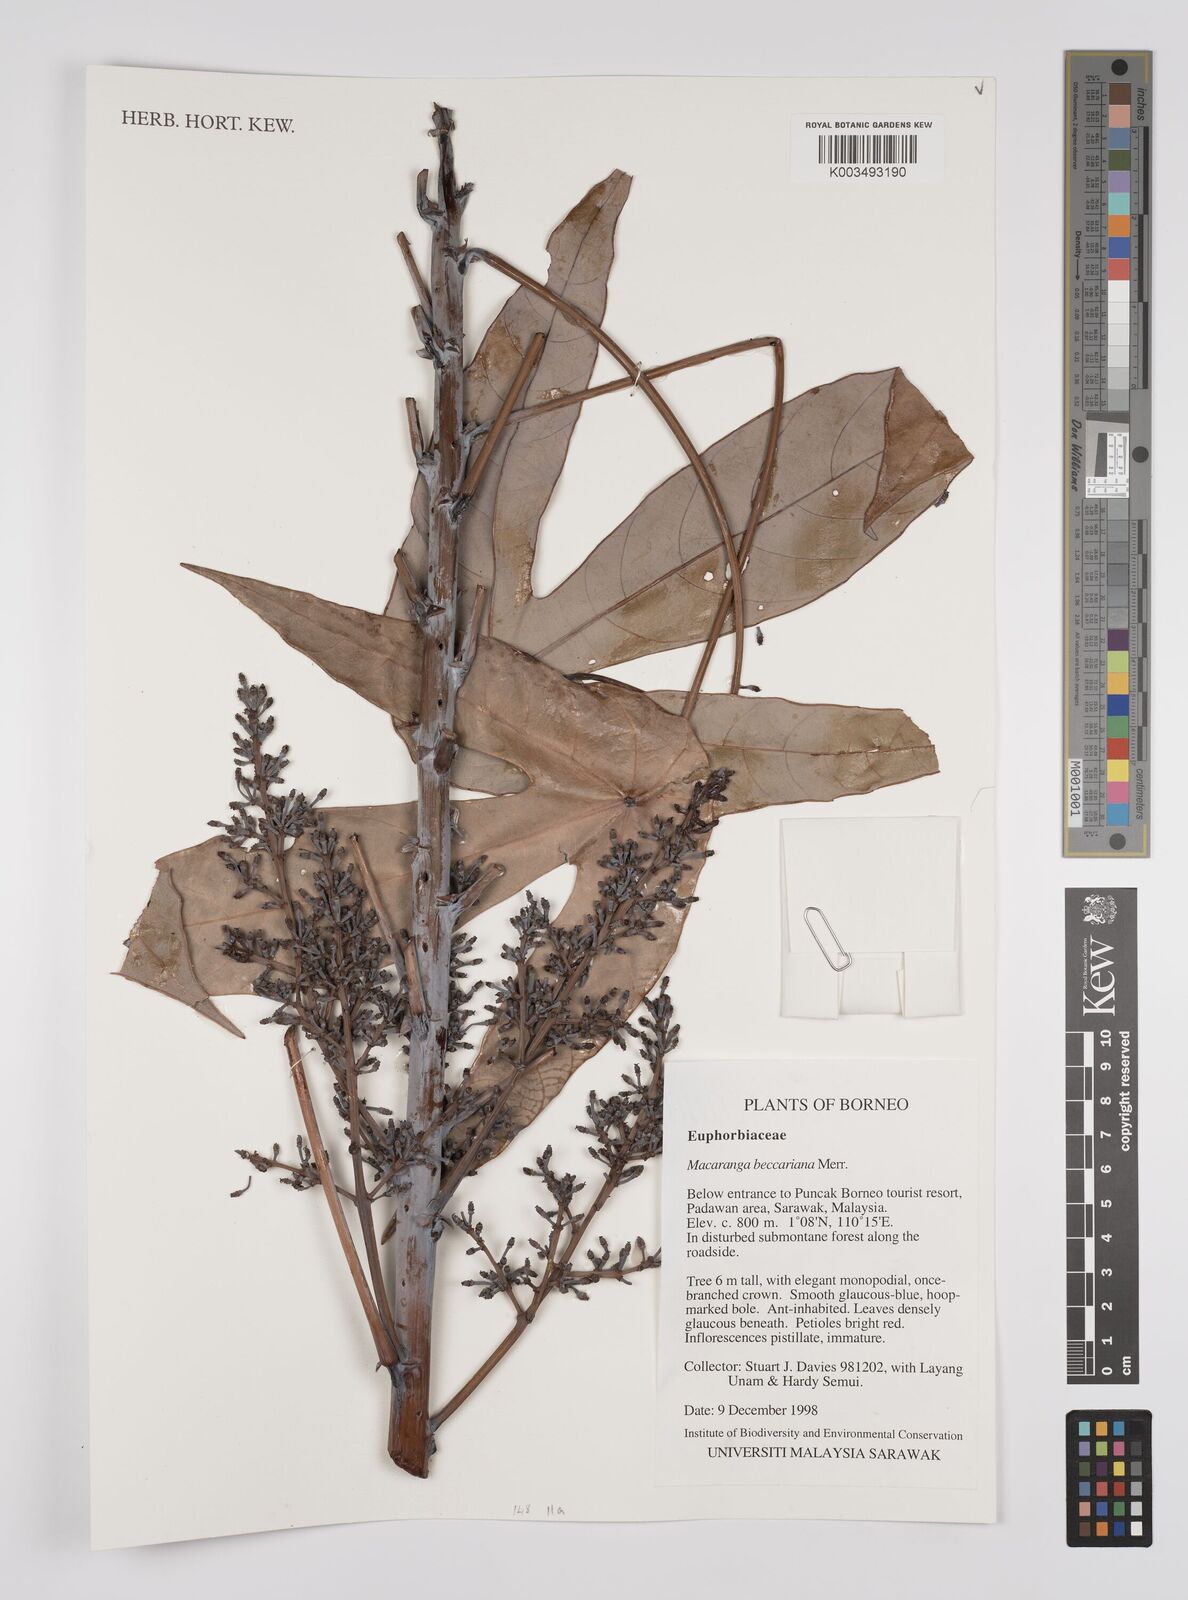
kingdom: Plantae
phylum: Tracheophyta
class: Magnoliopsida
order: Malpighiales
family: Euphorbiaceae
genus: Macaranga
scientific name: Macaranga beccariana
